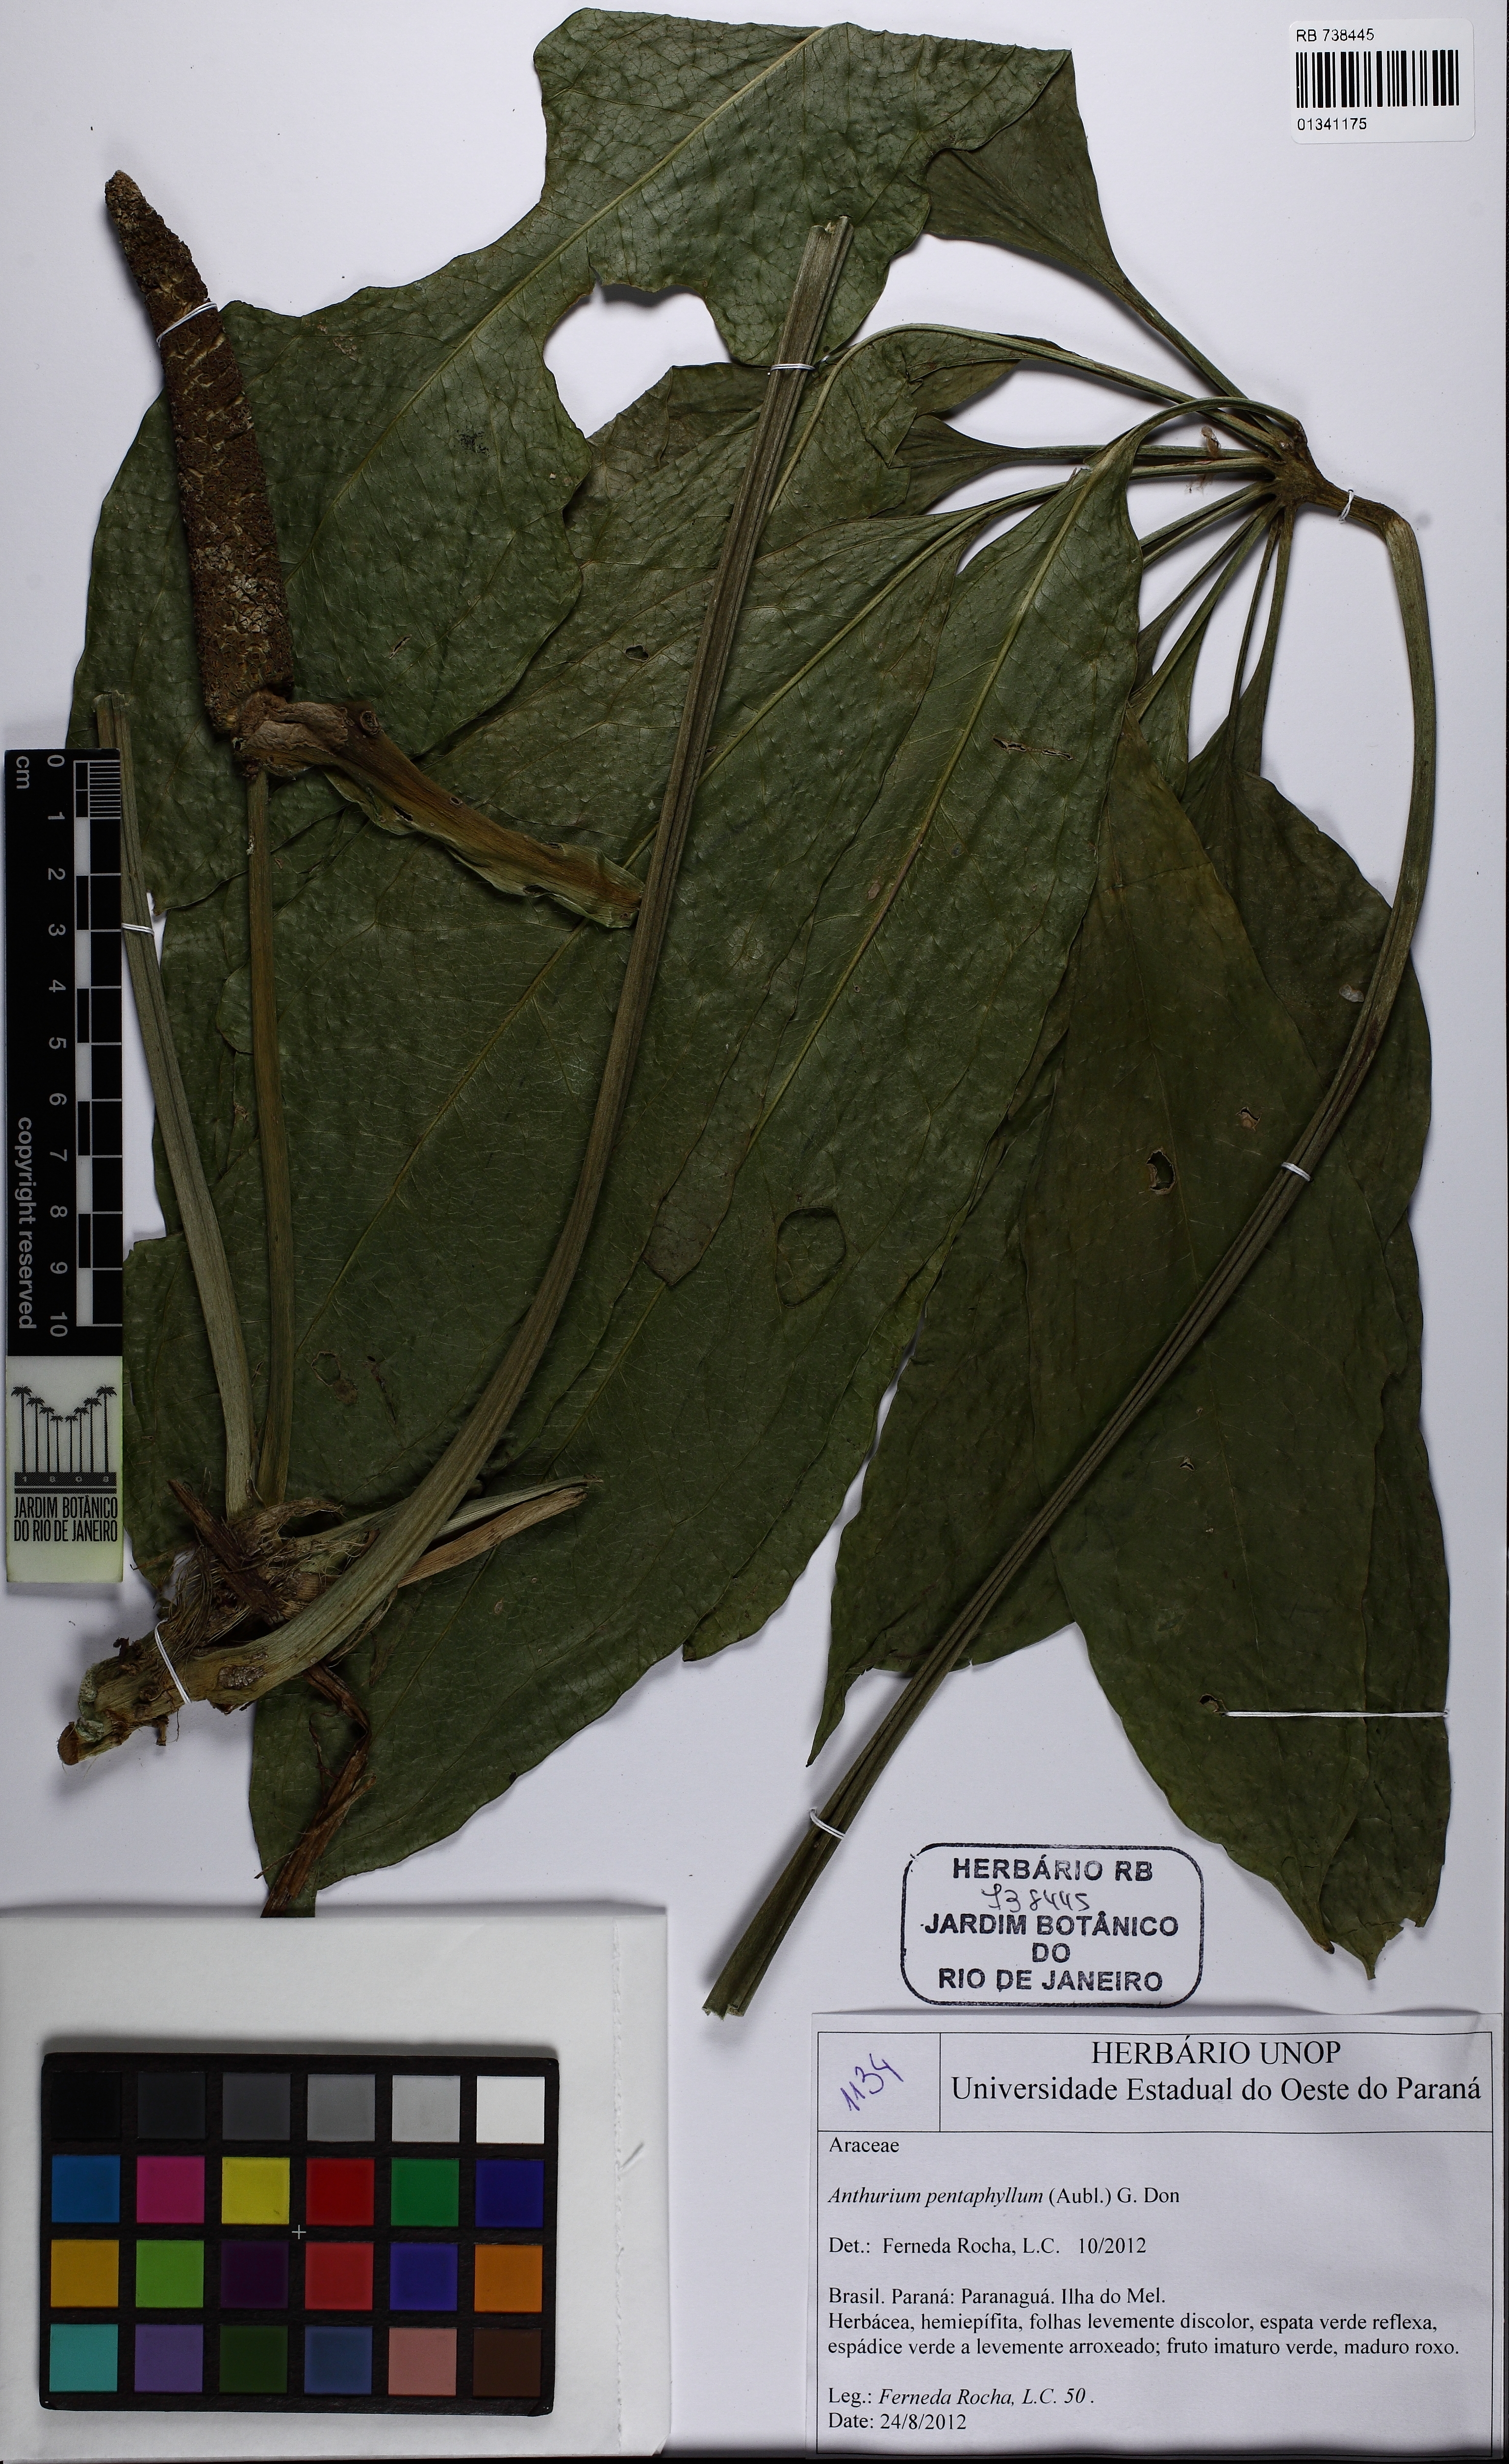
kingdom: Plantae
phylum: Tracheophyta
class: Liliopsida
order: Alismatales
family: Araceae
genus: Anthurium
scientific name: Anthurium pentaphyllum
